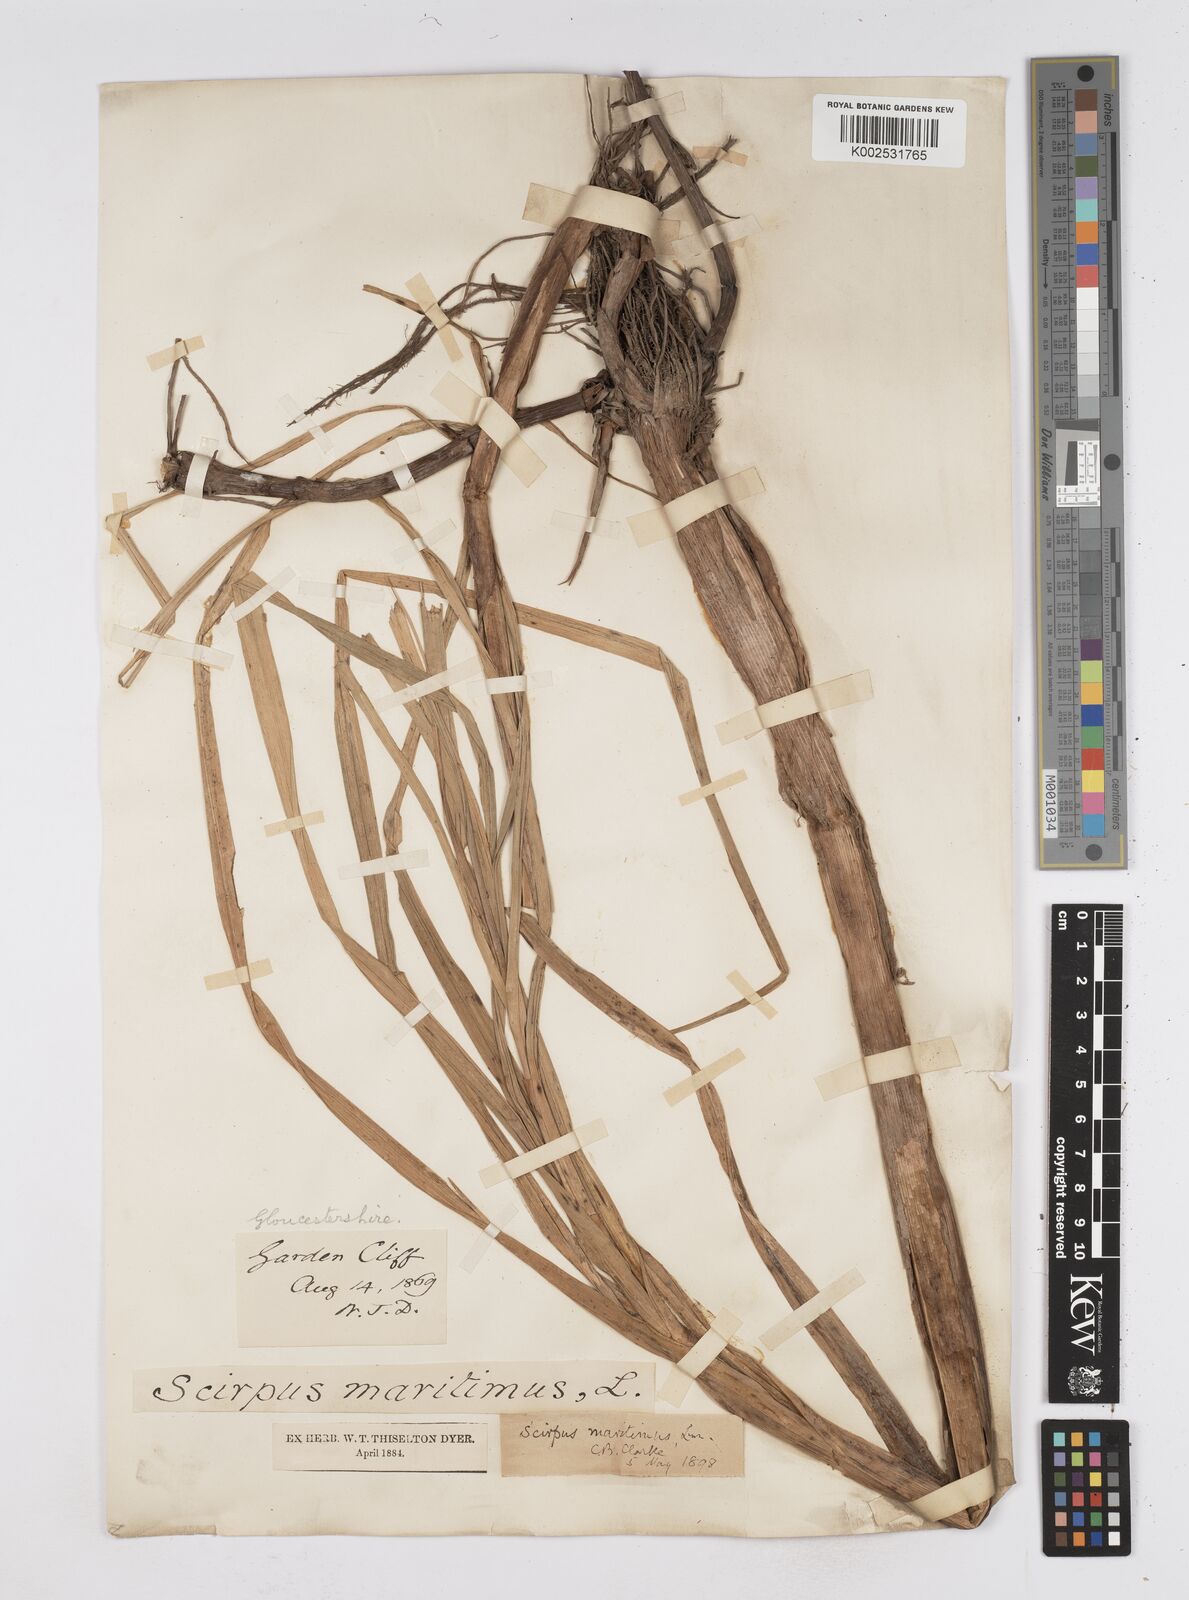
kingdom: Plantae
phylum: Tracheophyta
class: Liliopsida
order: Poales
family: Cyperaceae
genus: Bolboschoenus
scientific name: Bolboschoenus maritimus
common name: Sea club-rush
